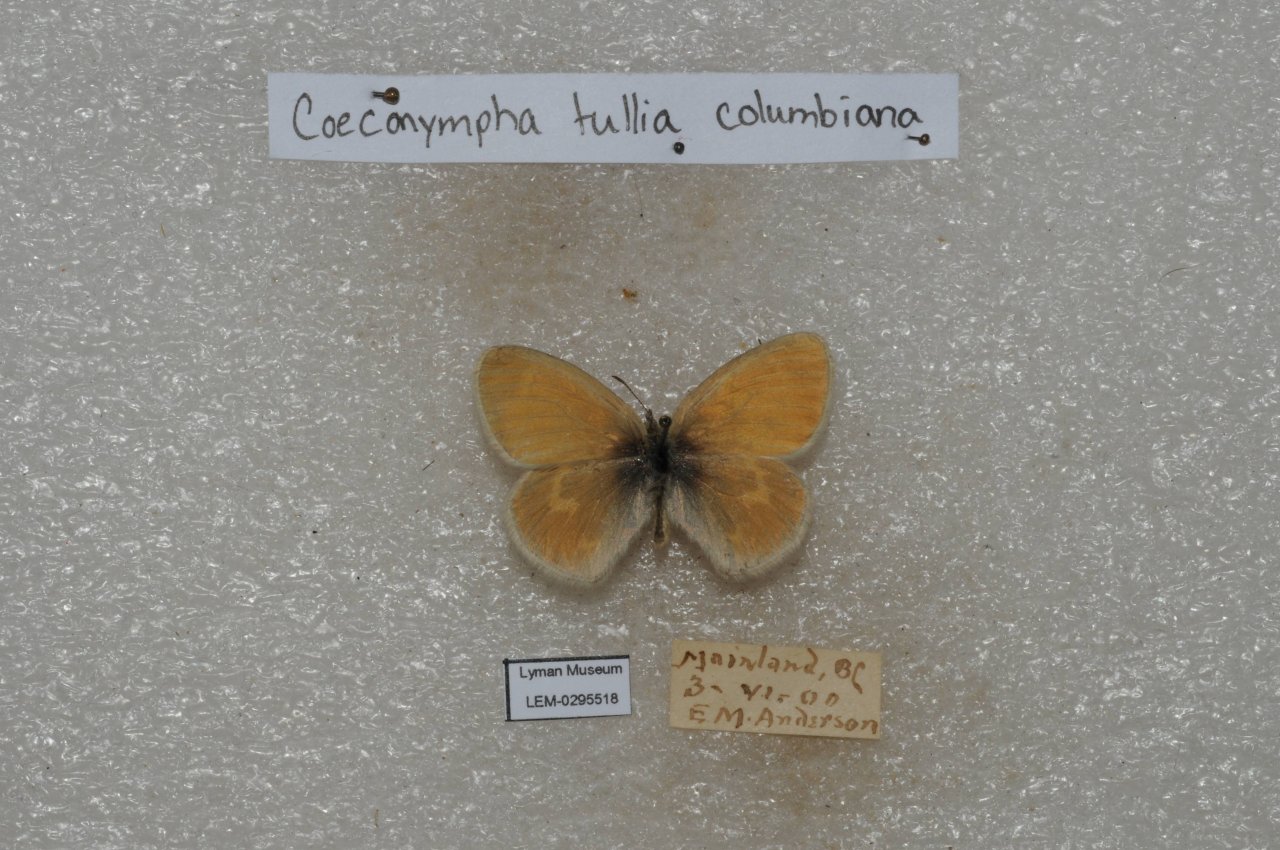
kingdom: Animalia
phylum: Arthropoda
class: Insecta
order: Lepidoptera
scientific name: Lepidoptera
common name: Butterflies
